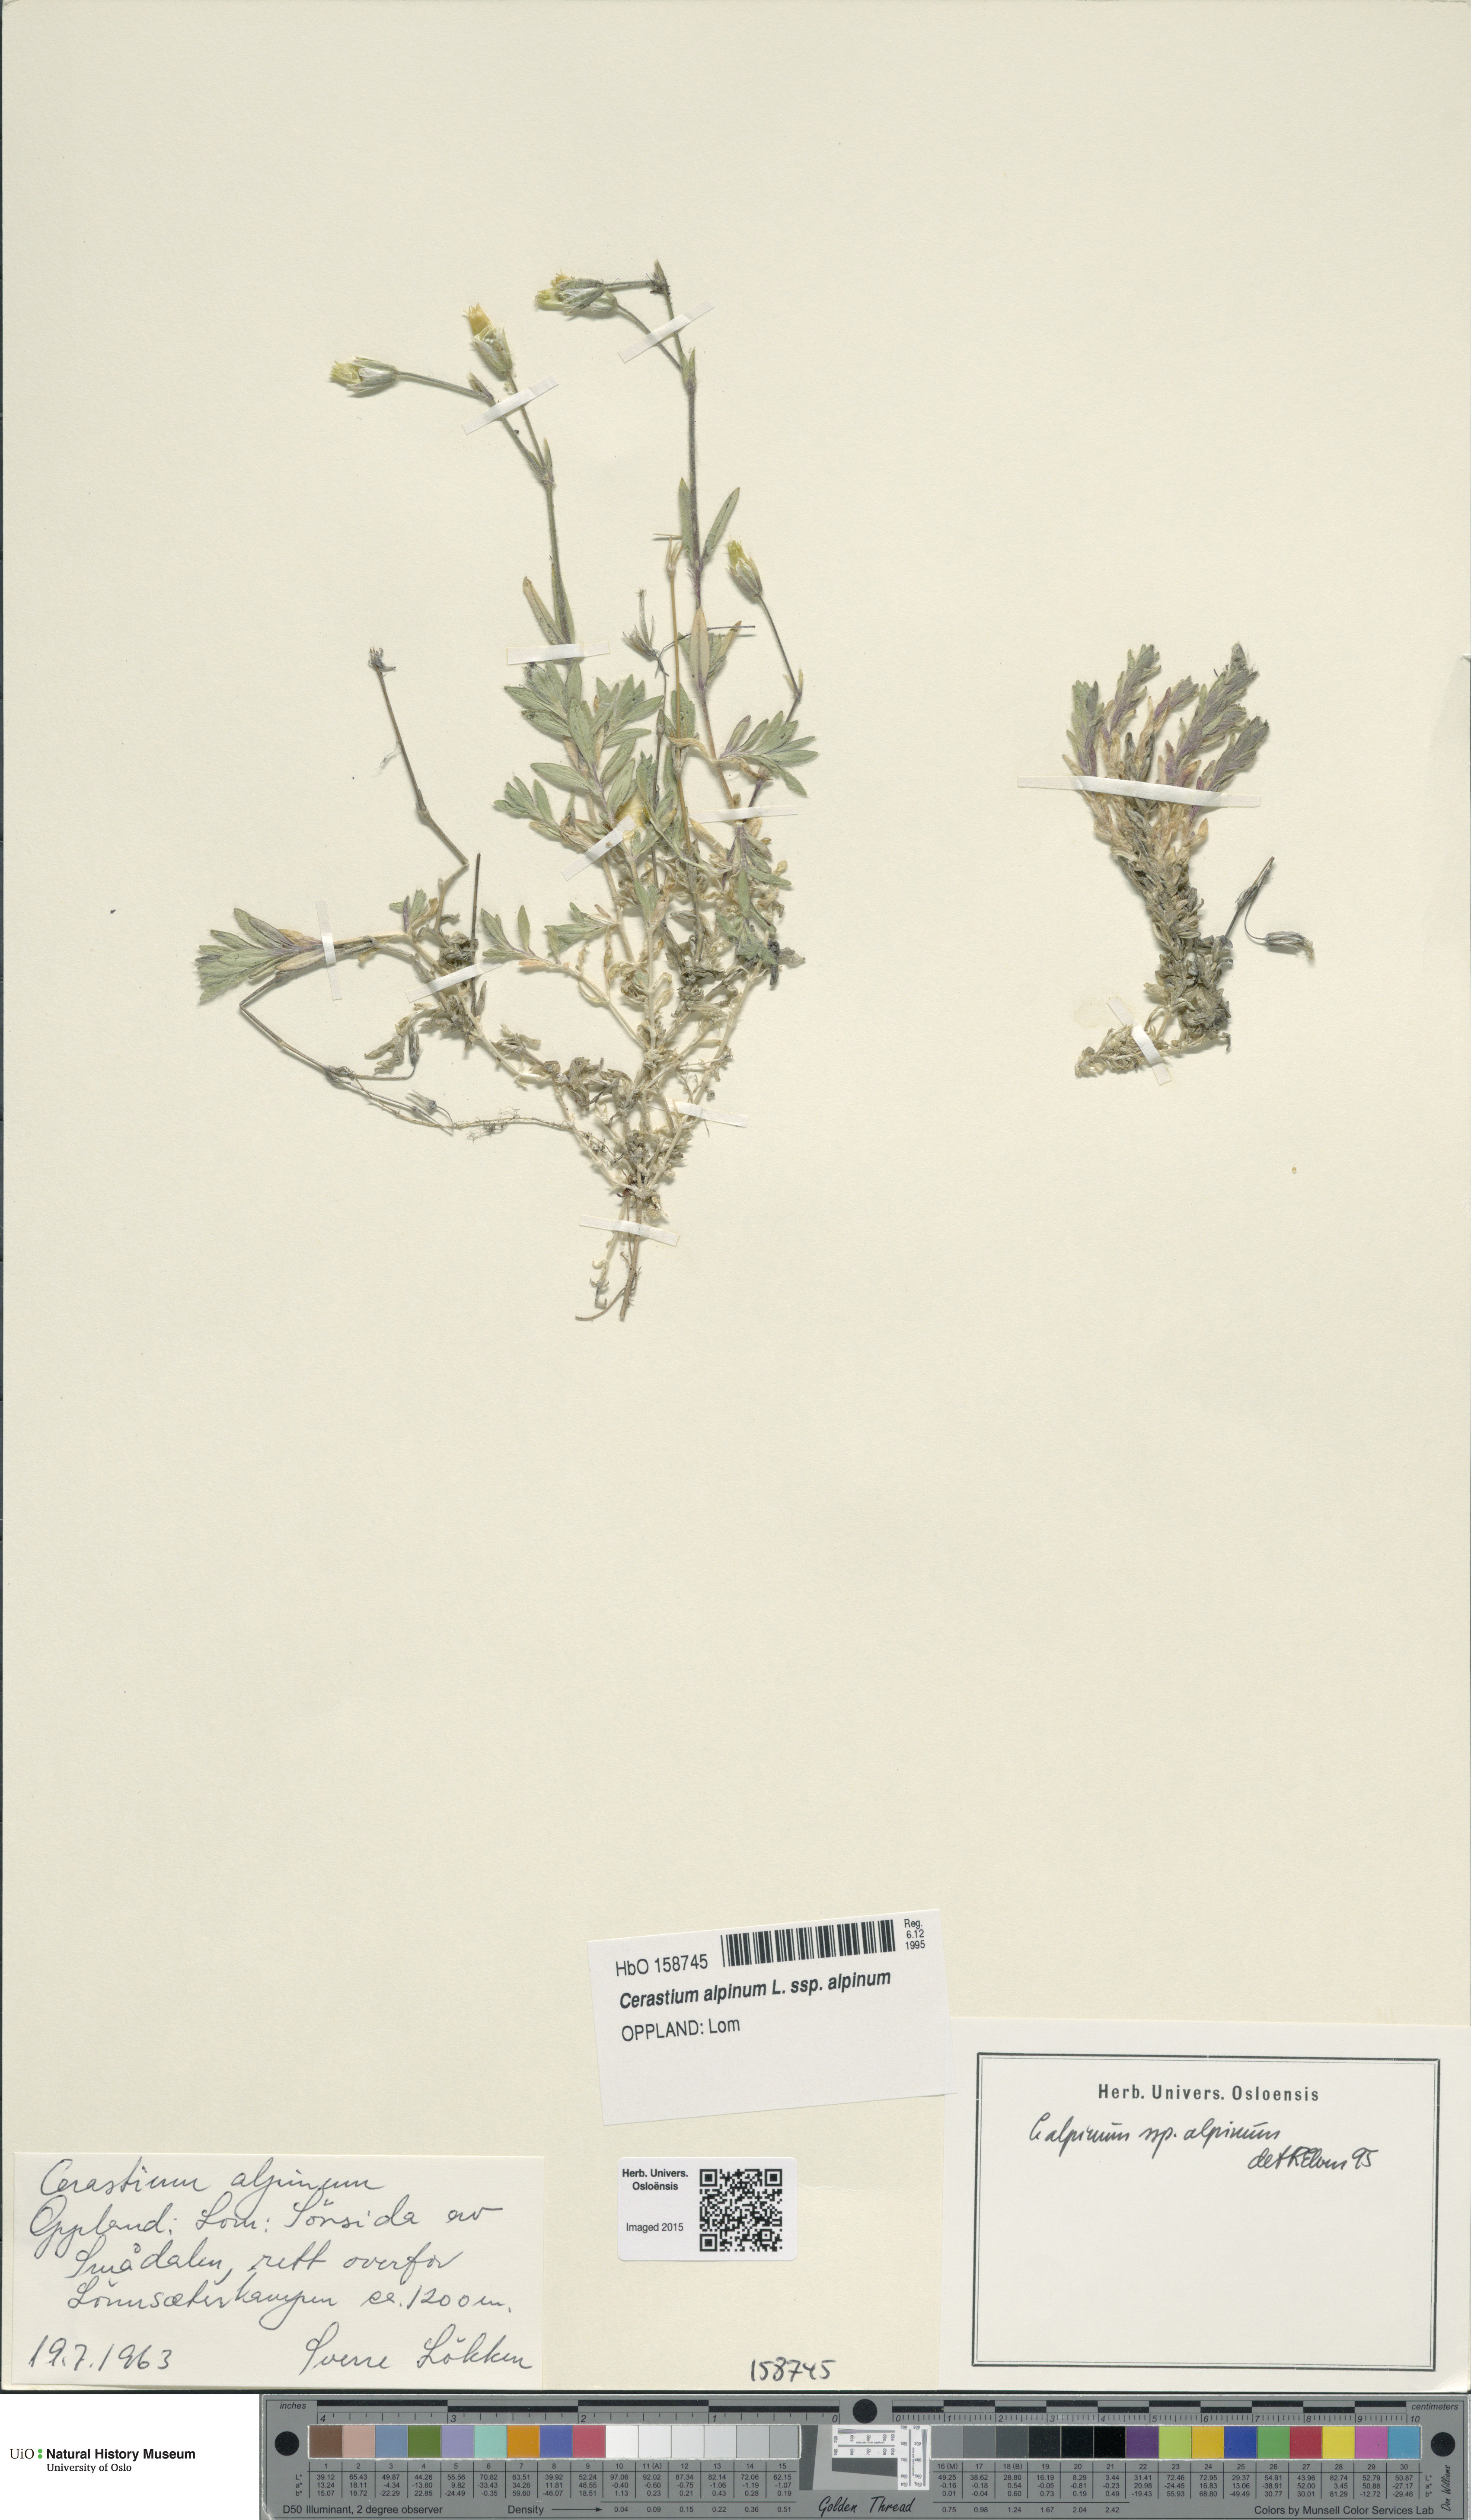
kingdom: Plantae
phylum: Tracheophyta
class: Magnoliopsida
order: Caryophyllales
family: Caryophyllaceae
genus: Cerastium
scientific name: Cerastium alpinum
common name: Alpine mouse-ear
